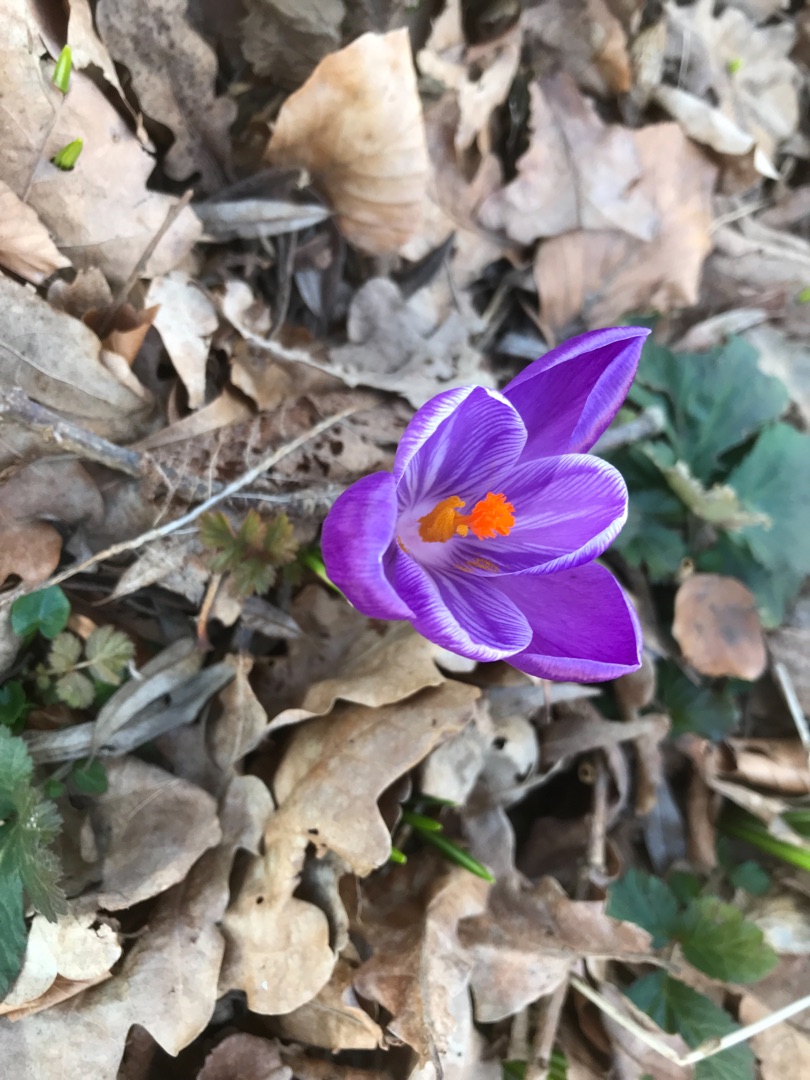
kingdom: Plantae
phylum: Tracheophyta
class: Liliopsida
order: Asparagales
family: Iridaceae
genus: Crocus
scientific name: Crocus vernus
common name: Vår-krokus
